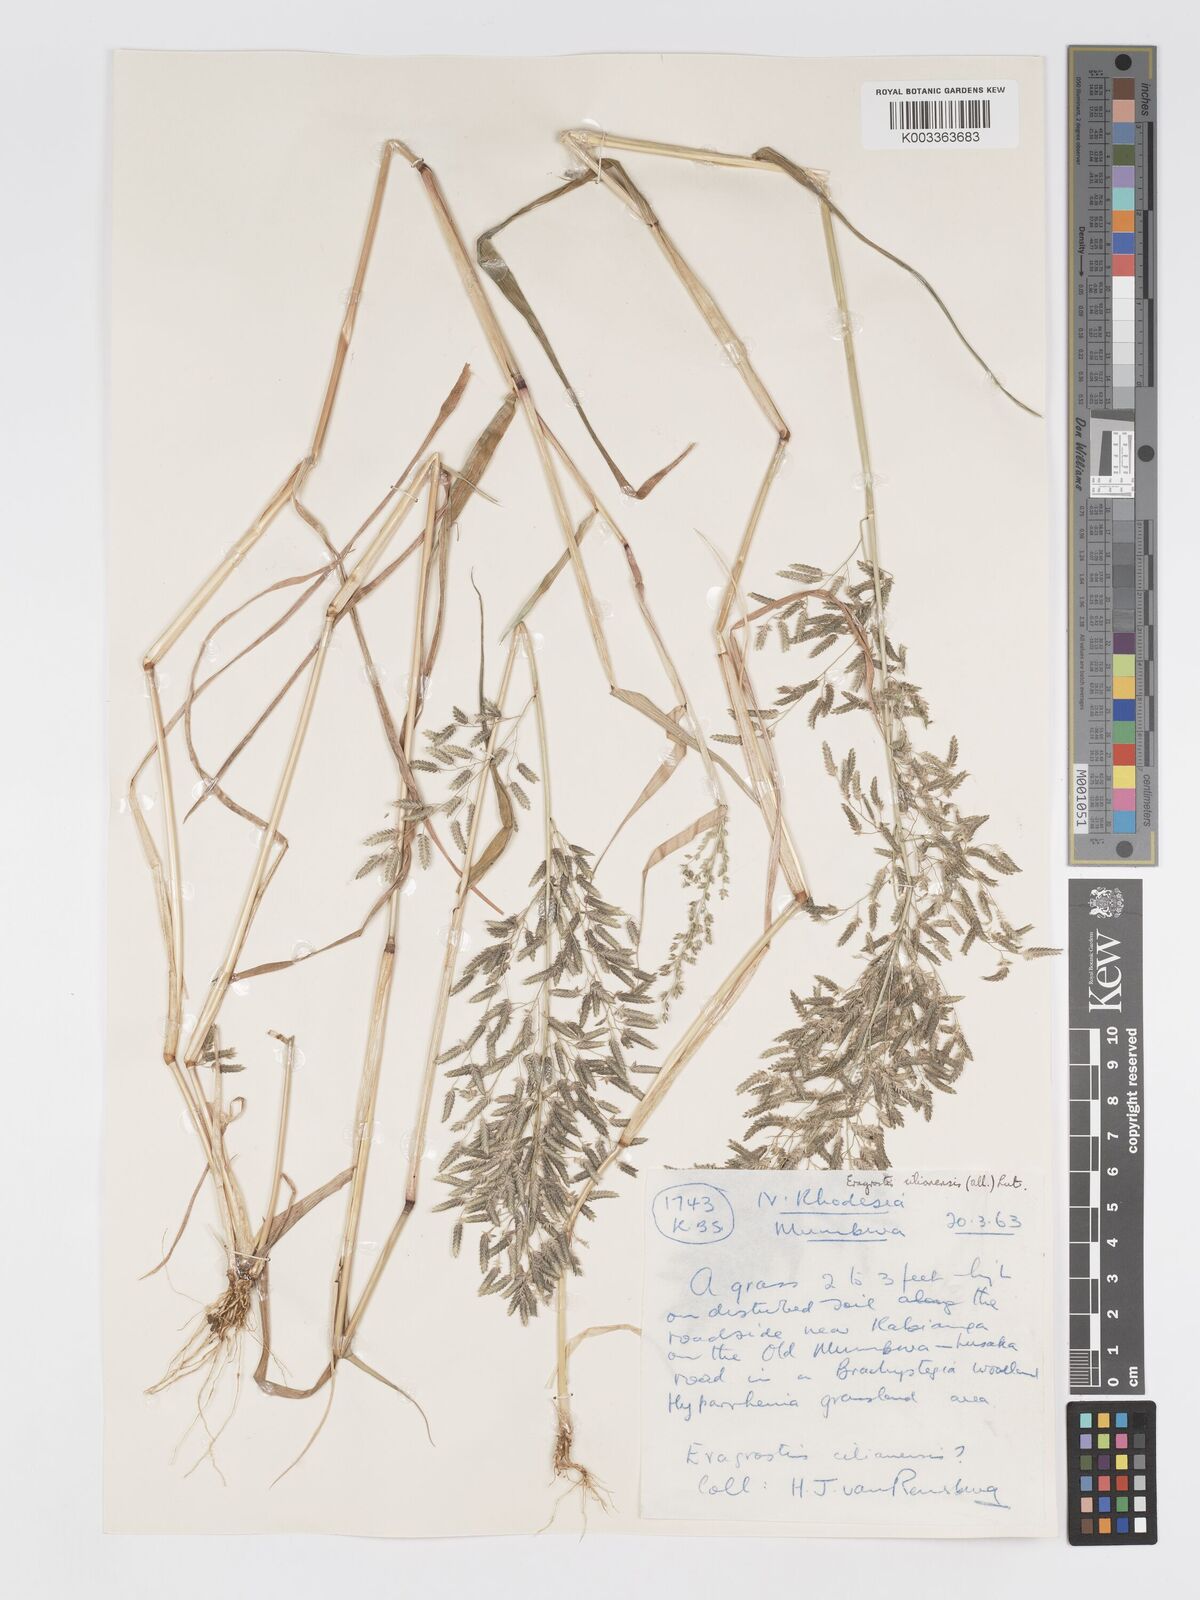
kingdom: Plantae
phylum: Tracheophyta
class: Liliopsida
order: Poales
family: Poaceae
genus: Eragrostis
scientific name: Eragrostis cilianensis
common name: Stinkgrass
